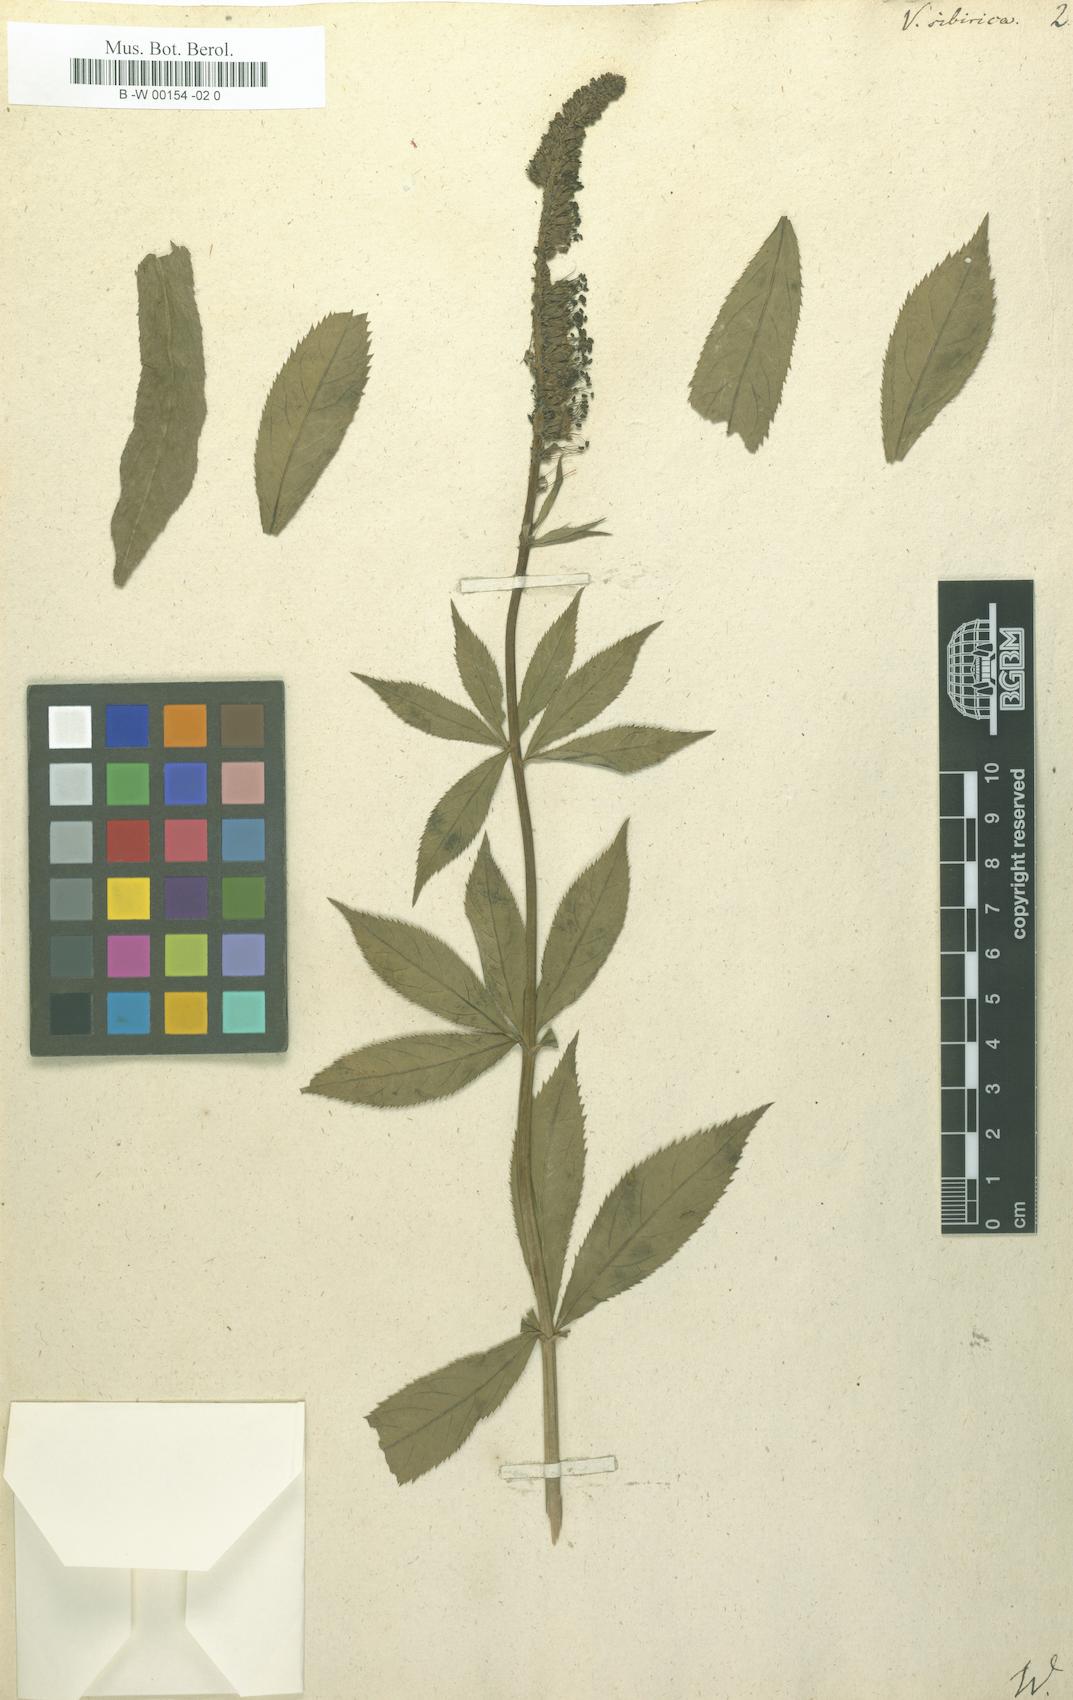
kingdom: Plantae
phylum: Tracheophyta
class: Magnoliopsida
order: Lamiales
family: Plantaginaceae
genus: Veronicastrum
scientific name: Veronicastrum sibiricum
